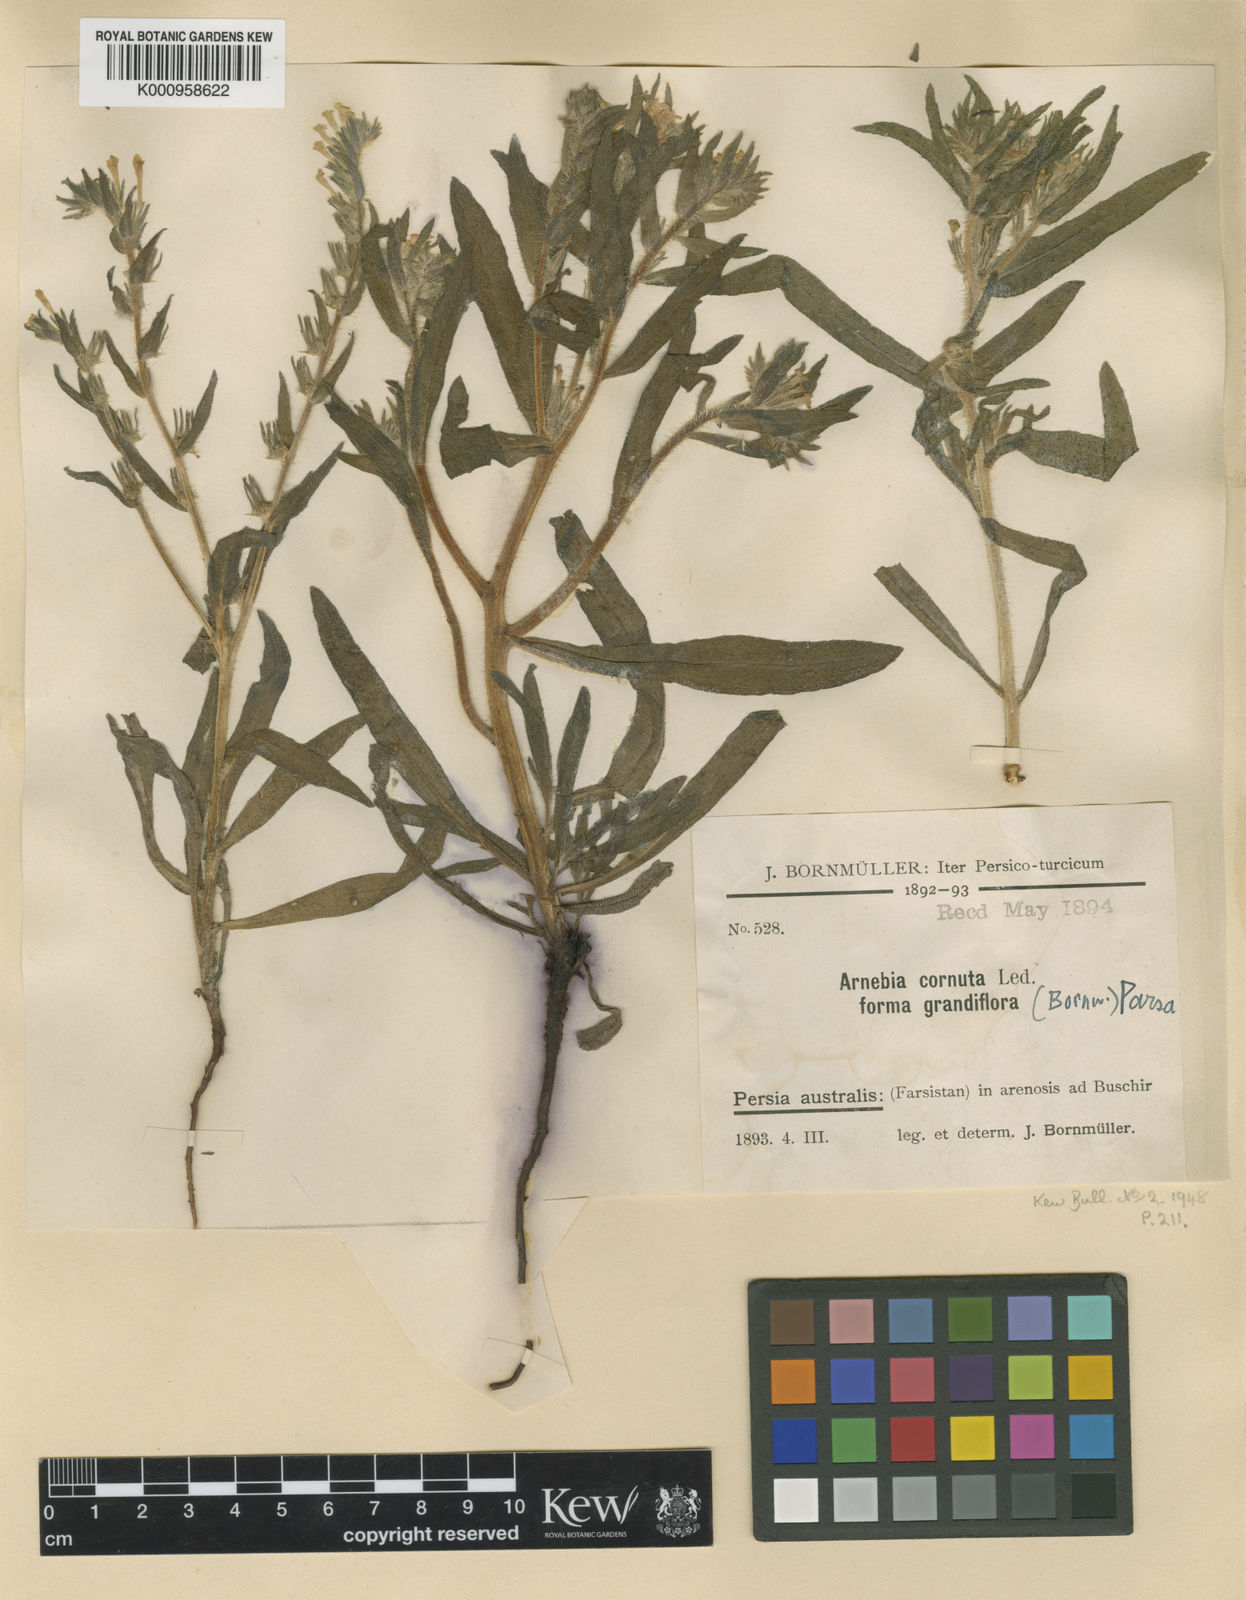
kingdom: Plantae
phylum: Tracheophyta
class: Magnoliopsida
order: Boraginales
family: Boraginaceae
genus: Arnebia
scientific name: Arnebia decumbens
